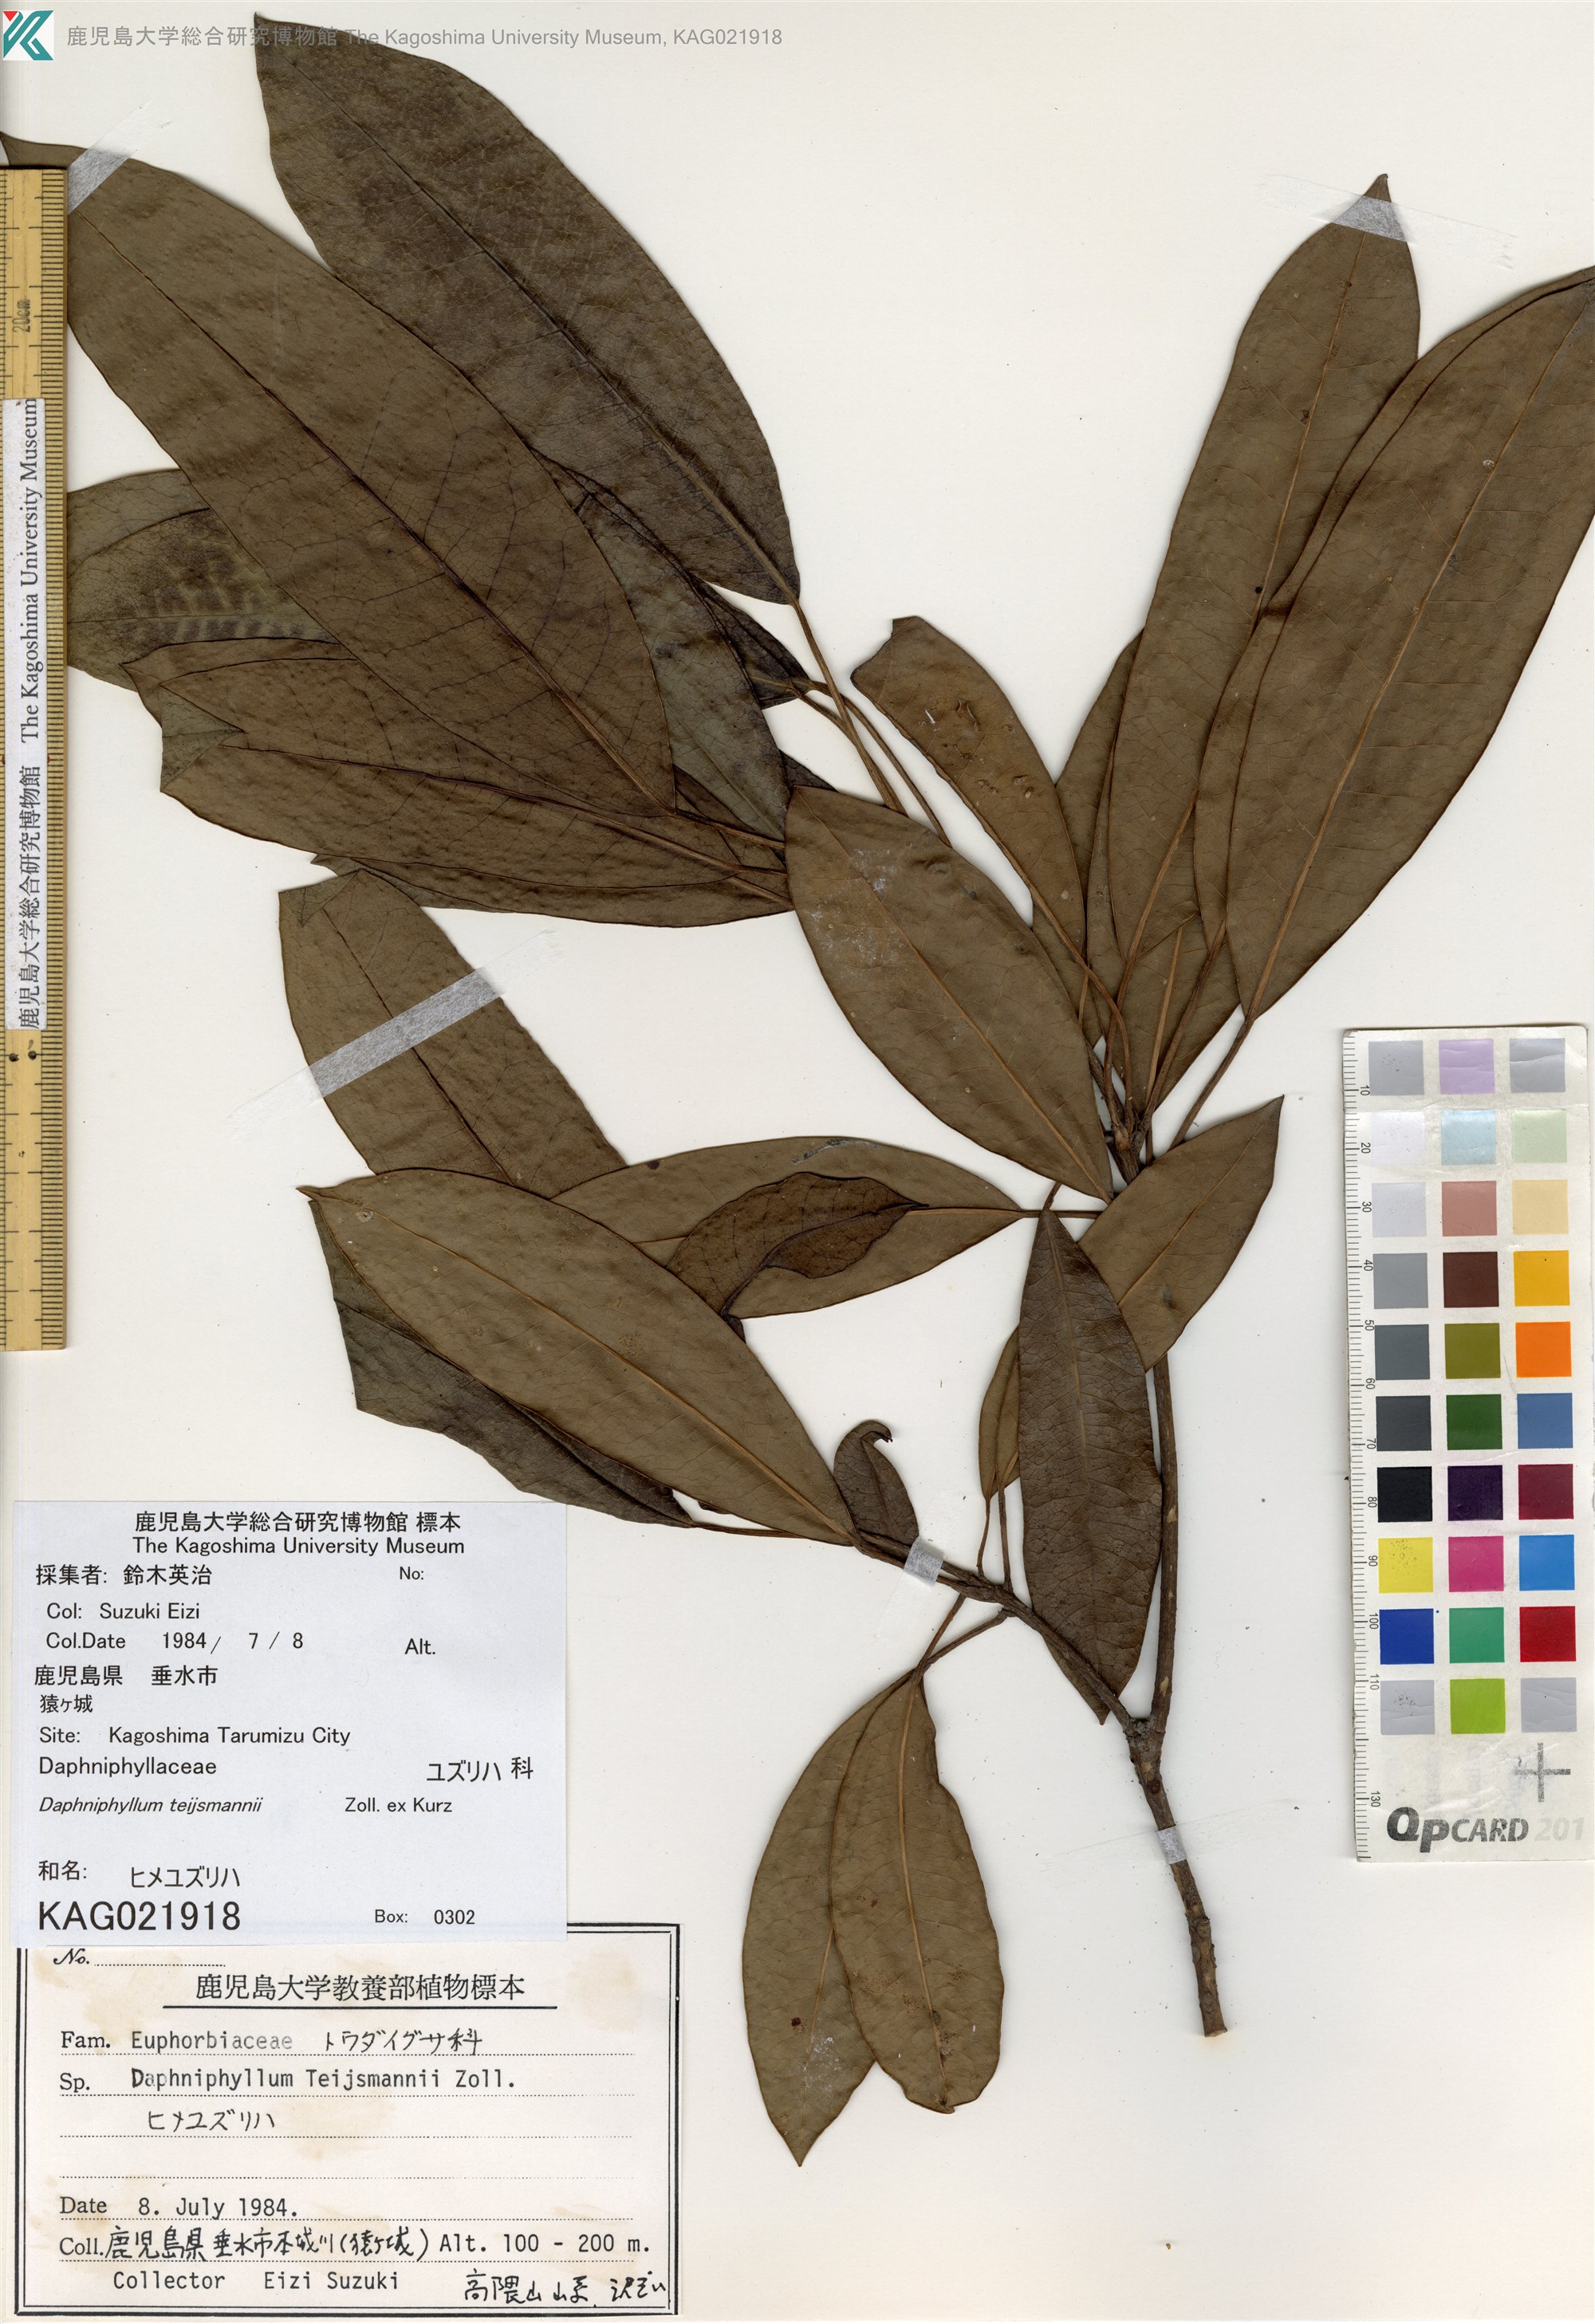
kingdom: Plantae
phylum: Tracheophyta
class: Magnoliopsida
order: Saxifragales
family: Daphniphyllaceae
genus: Daphniphyllum
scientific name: Daphniphyllum teijsmannii
